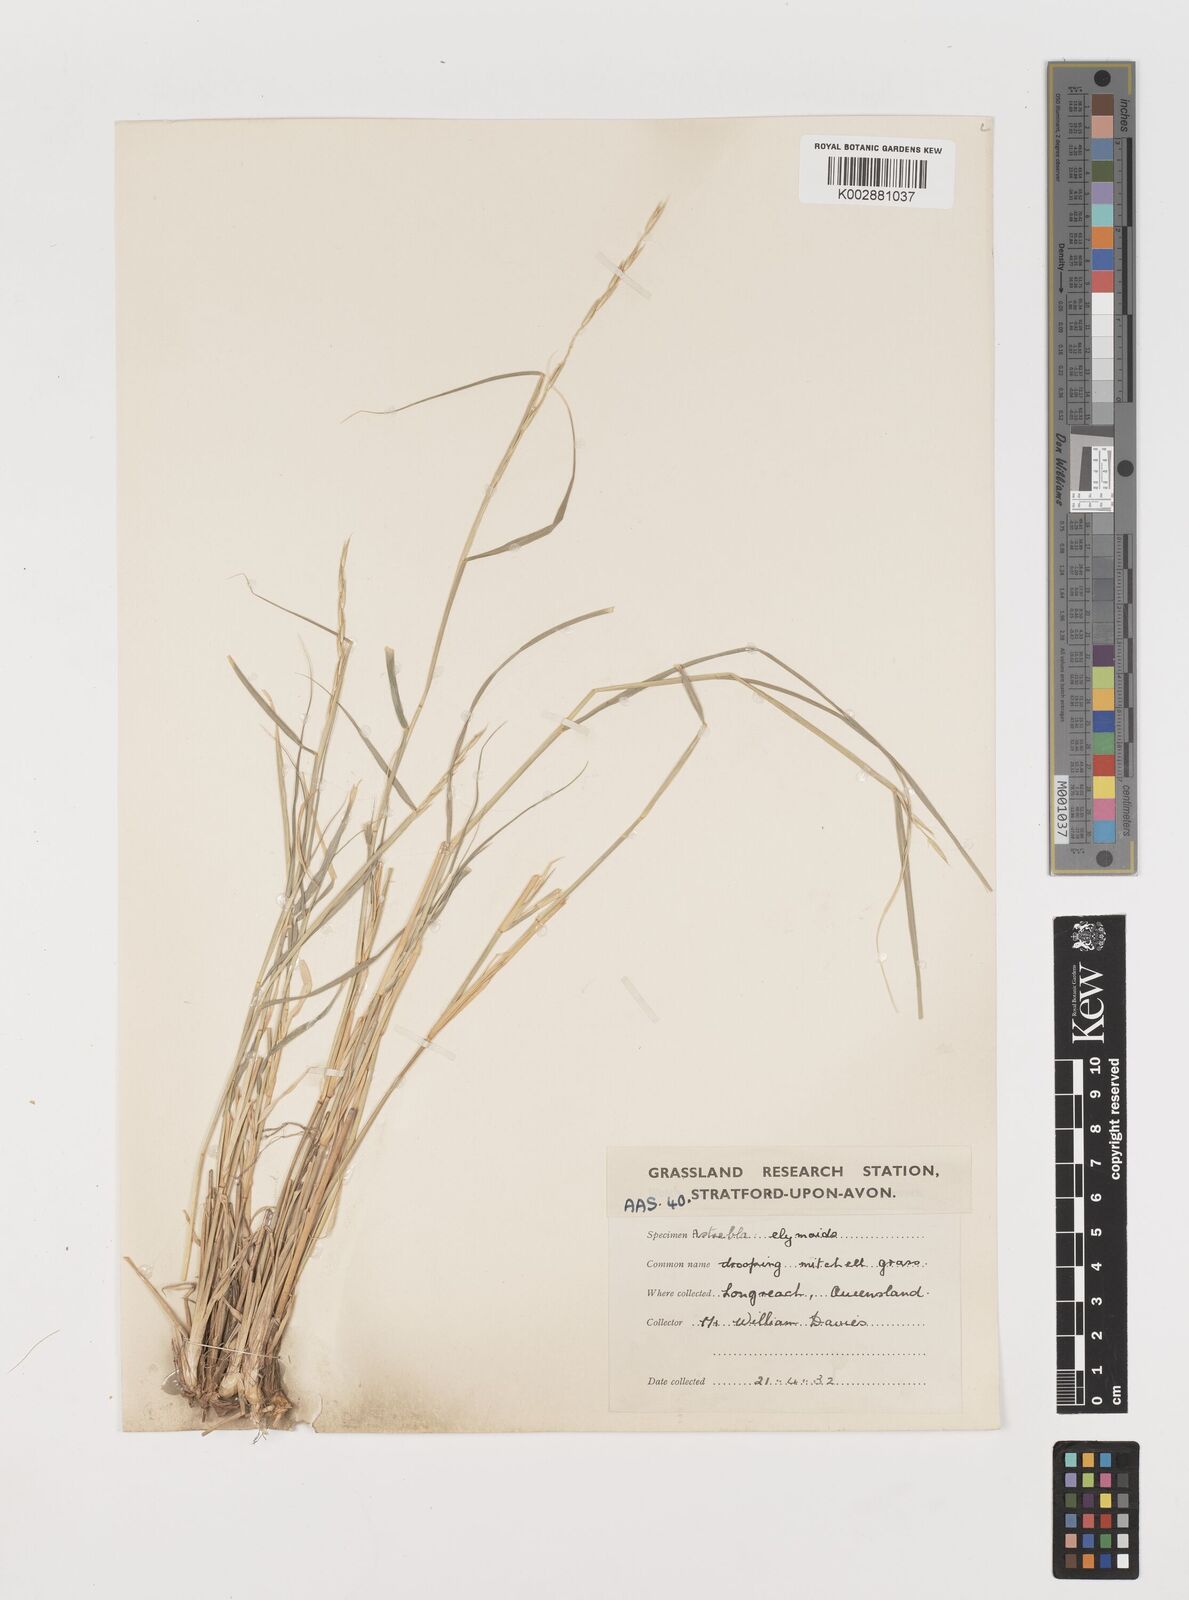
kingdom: Plantae
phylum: Tracheophyta
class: Liliopsida
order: Poales
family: Poaceae
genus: Astrebla
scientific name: Astrebla elymoides
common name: Hoop mitchell grass
